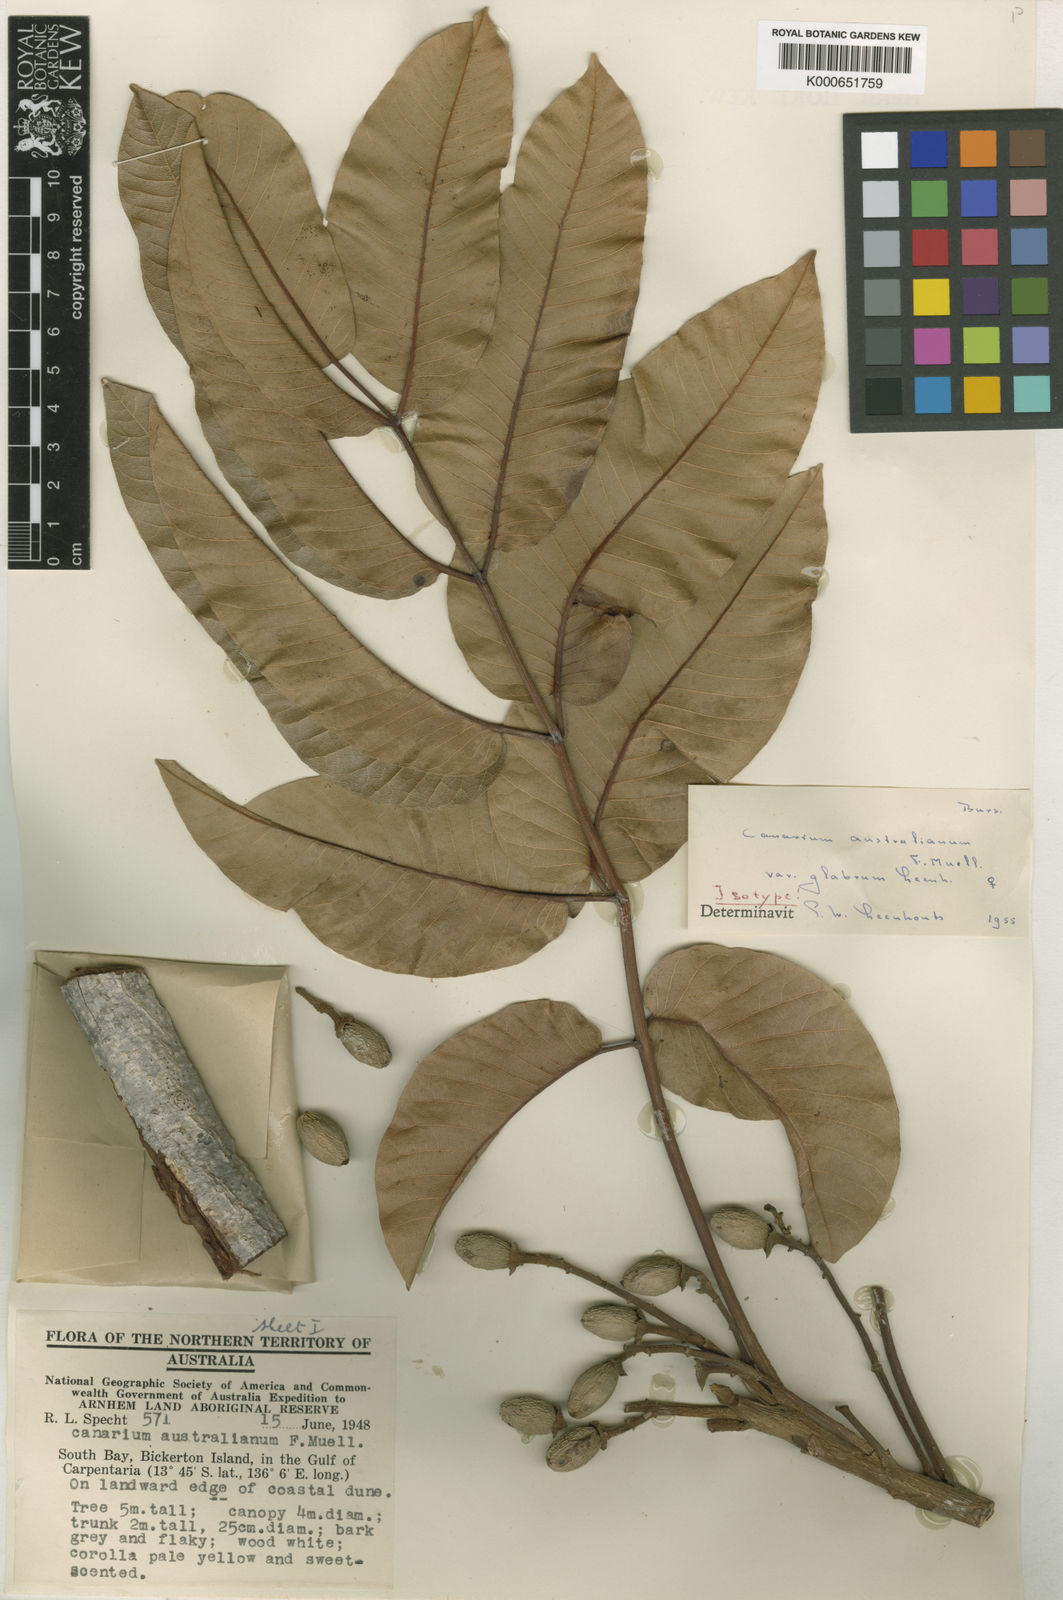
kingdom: Plantae
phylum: Tracheophyta
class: Magnoliopsida
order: Sapindales
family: Burseraceae
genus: Canarium
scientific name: Canarium australianum
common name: Island white-beech
